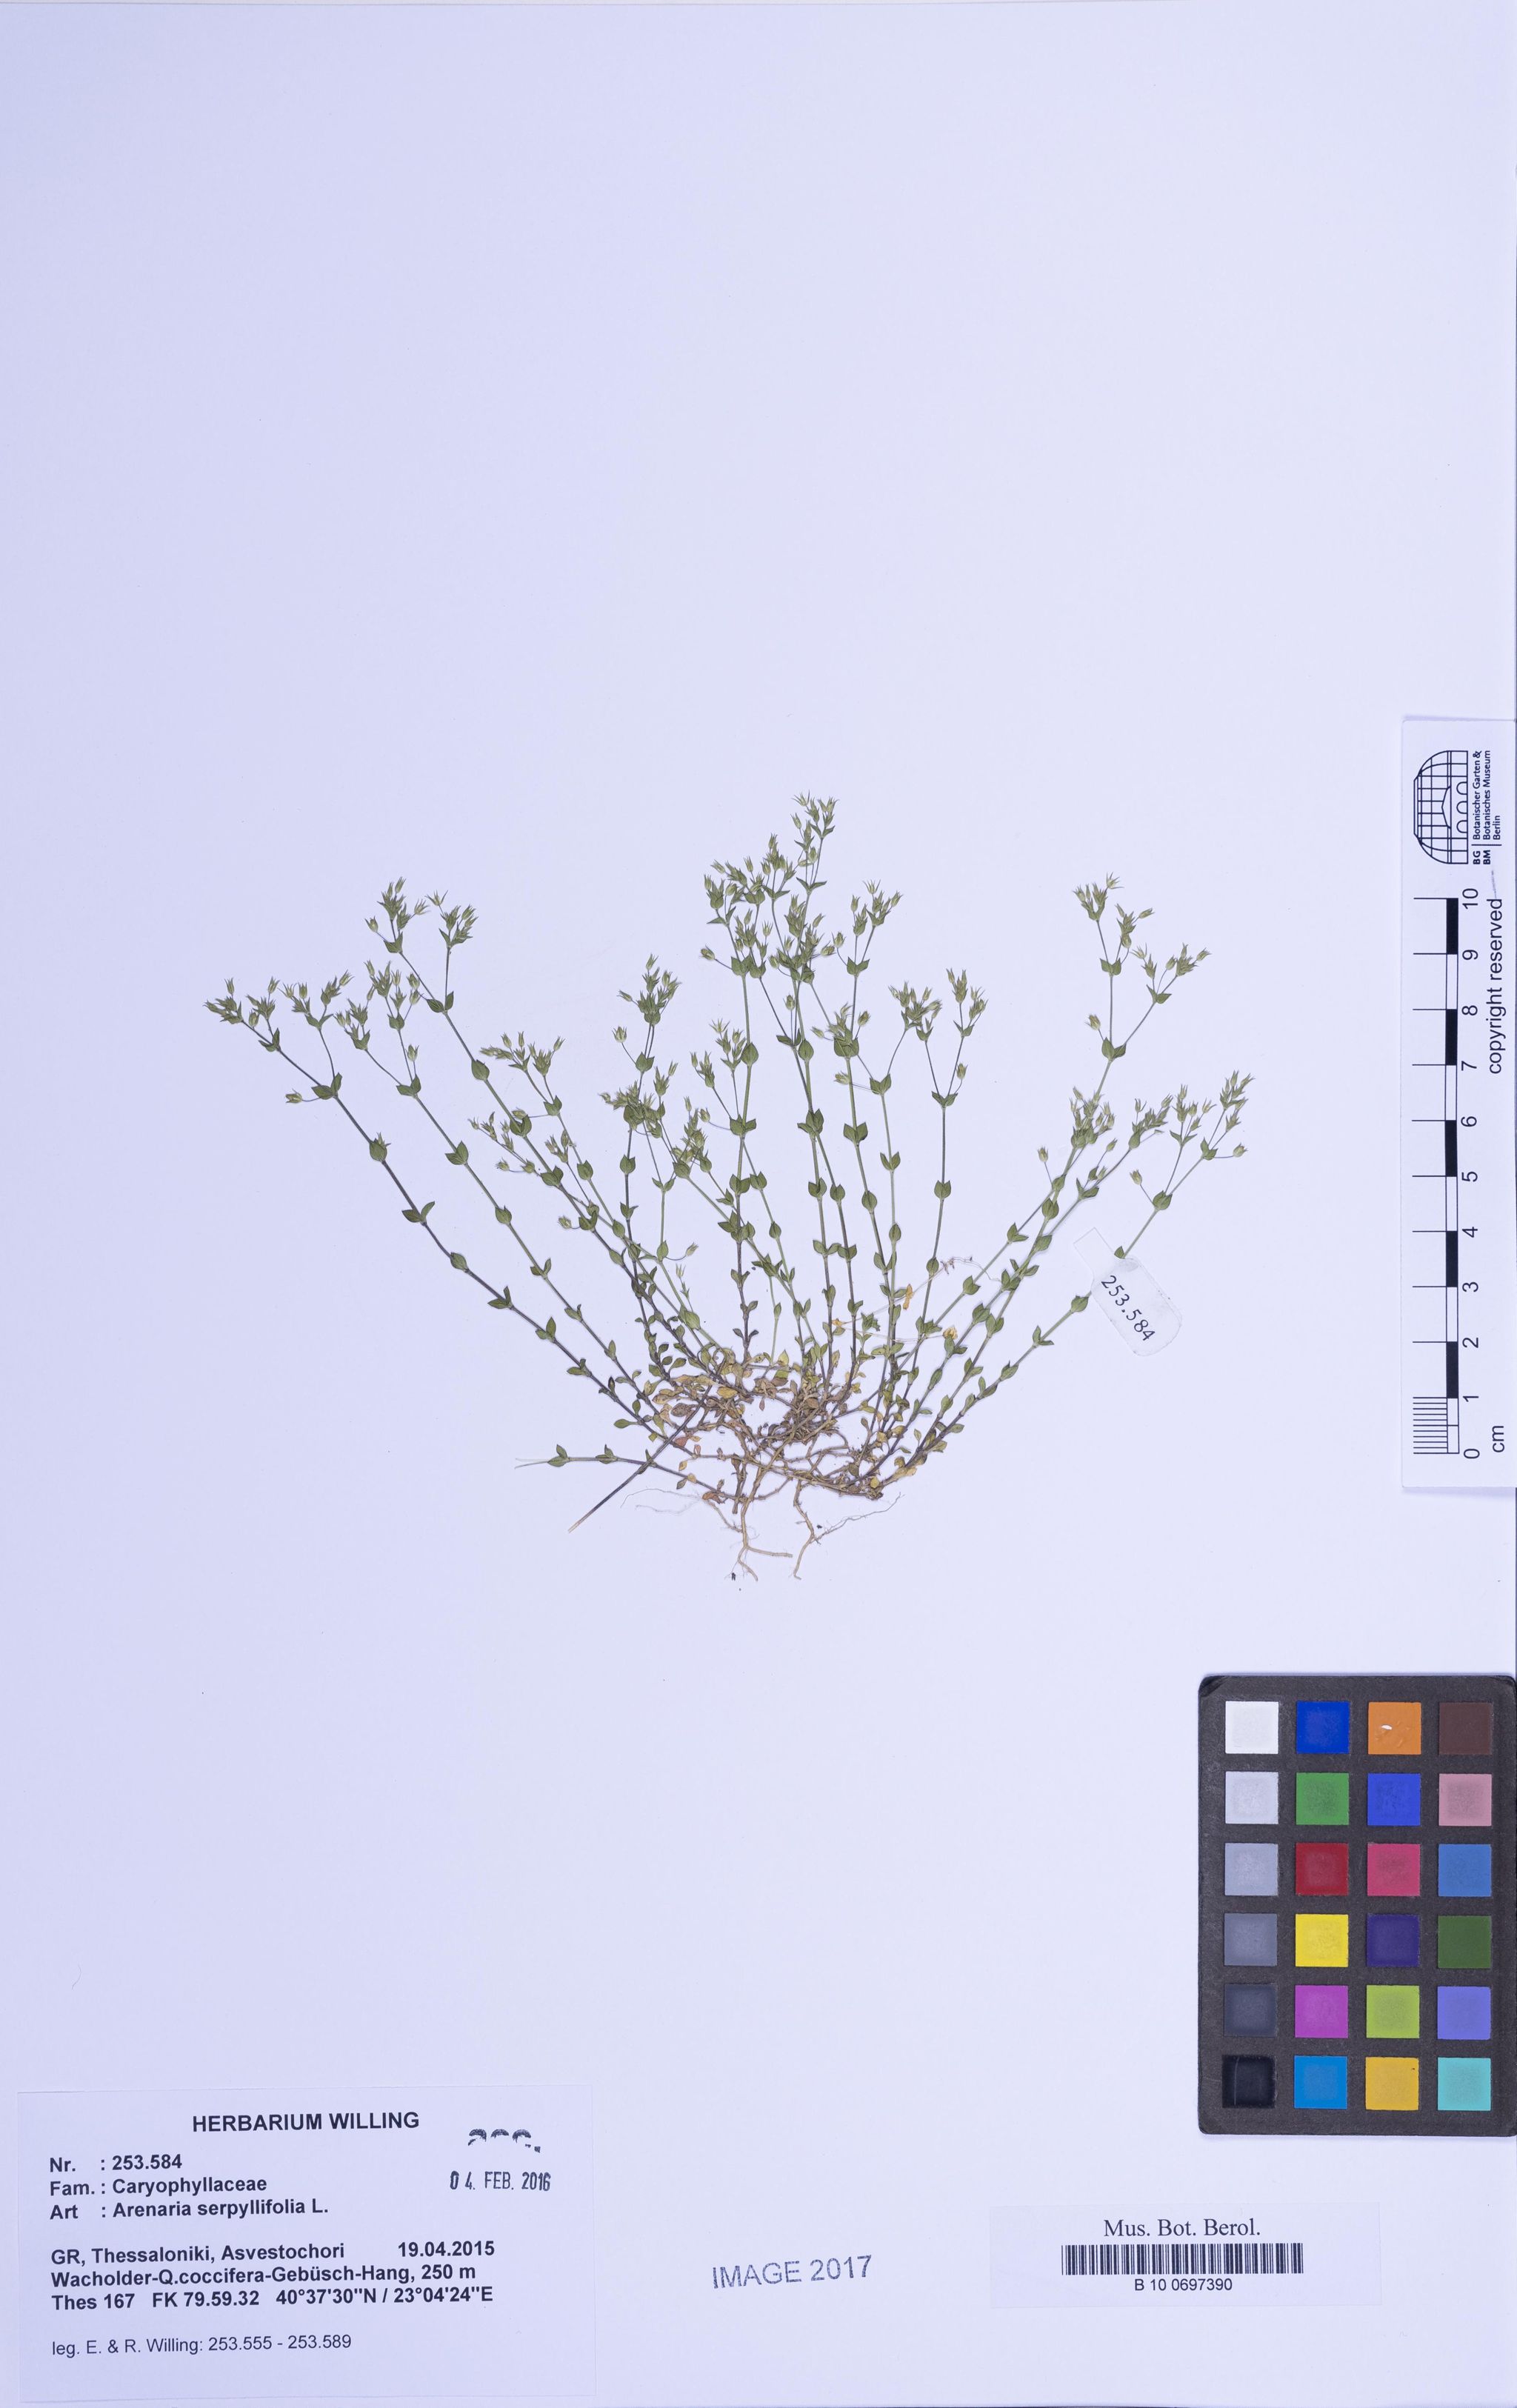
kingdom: Plantae
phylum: Tracheophyta
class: Magnoliopsida
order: Caryophyllales
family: Caryophyllaceae
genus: Arenaria
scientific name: Arenaria serpyllifolia
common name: Thyme-leaved sandwort
